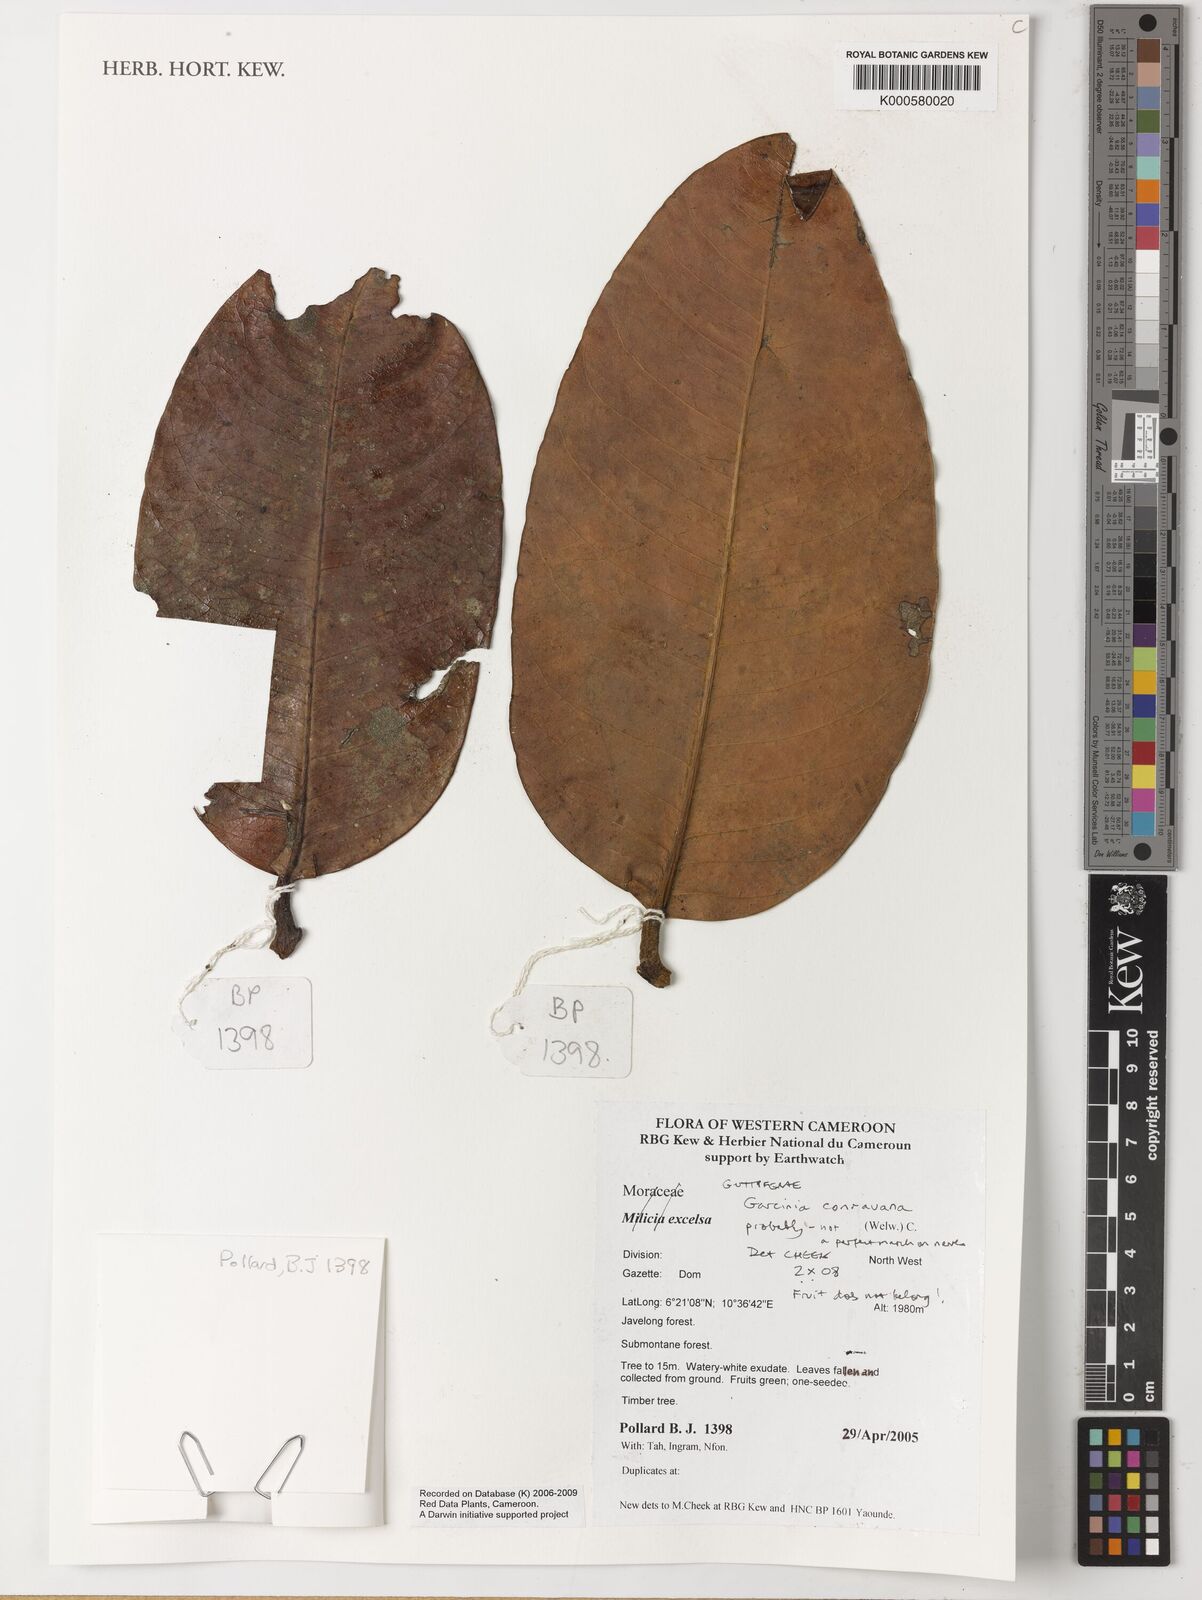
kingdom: Plantae
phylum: Tracheophyta
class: Magnoliopsida
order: Malpighiales
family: Clusiaceae
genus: Garcinia
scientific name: Garcinia conrauana
